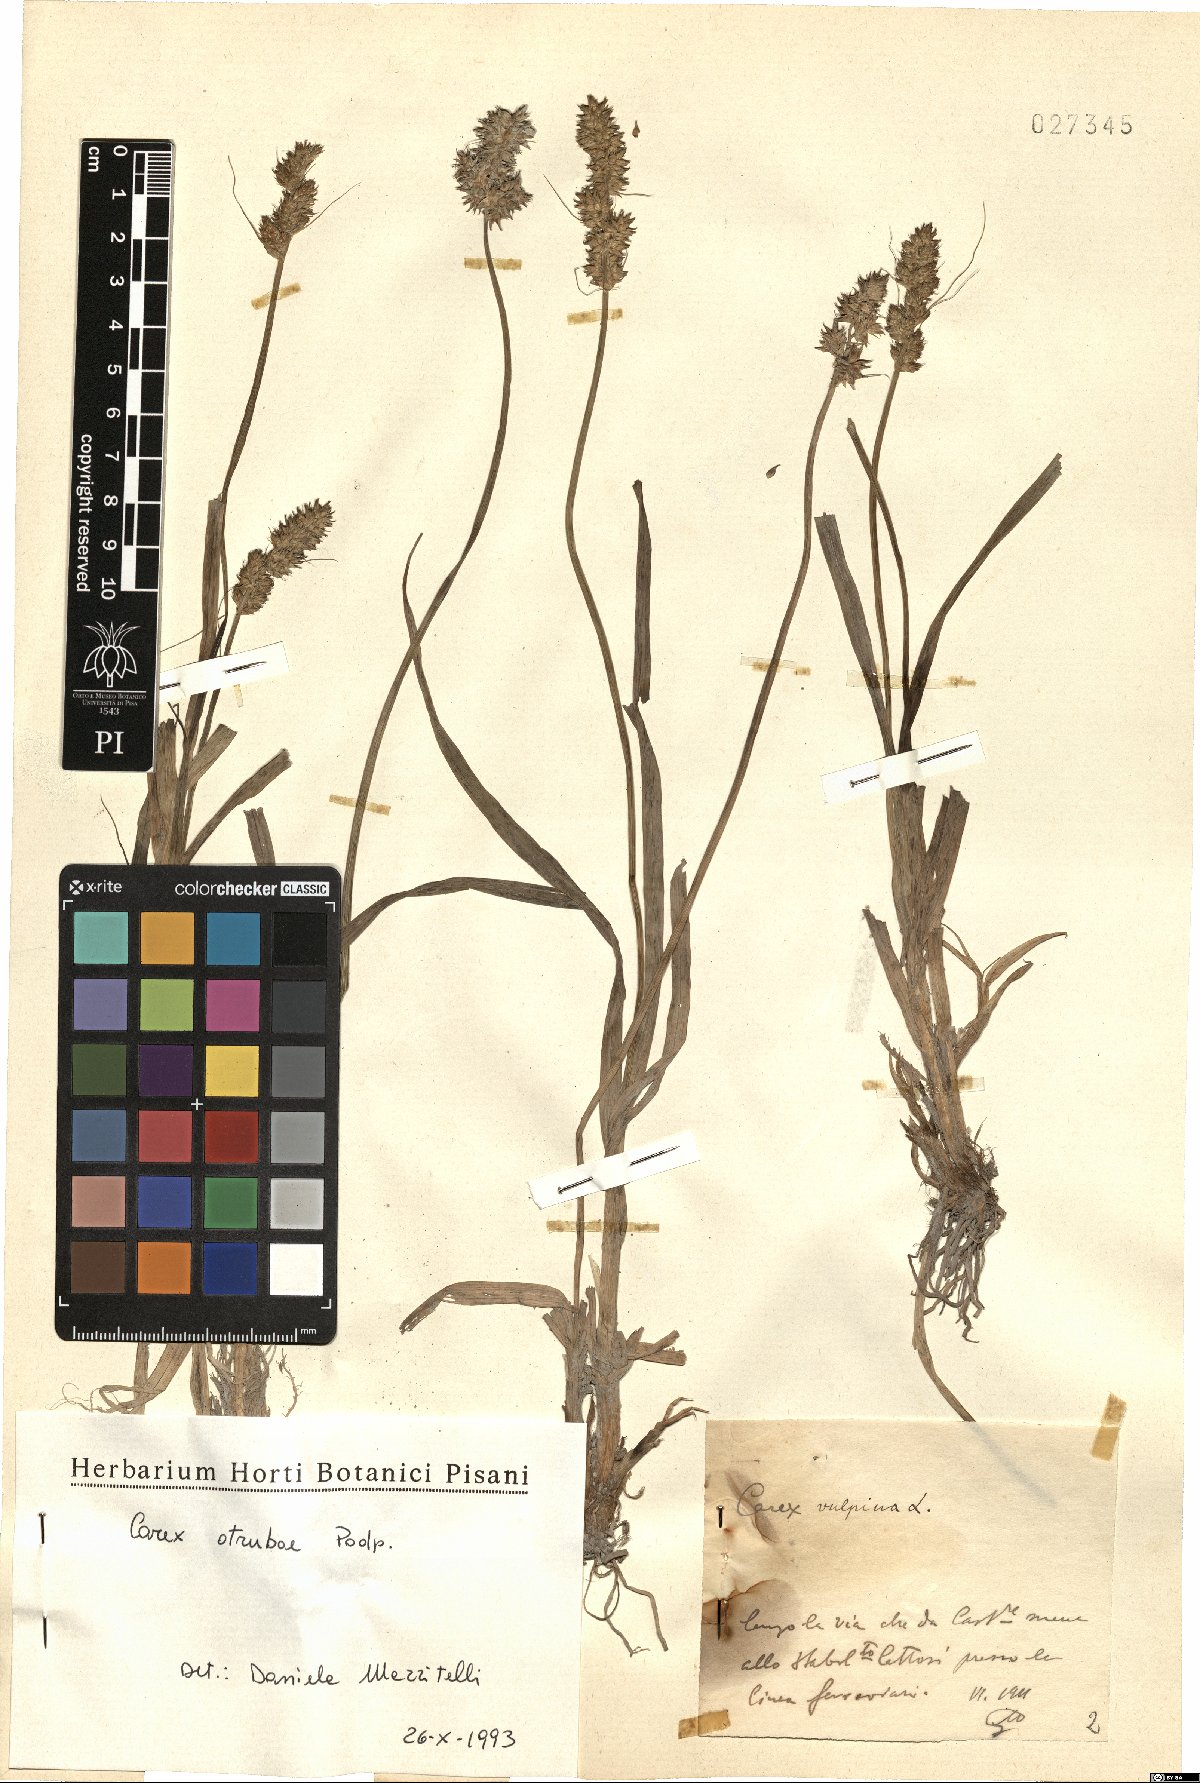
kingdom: Plantae
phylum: Tracheophyta
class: Liliopsida
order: Poales
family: Cyperaceae
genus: Carex
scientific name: Carex otrubae
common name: False fox-sedge
